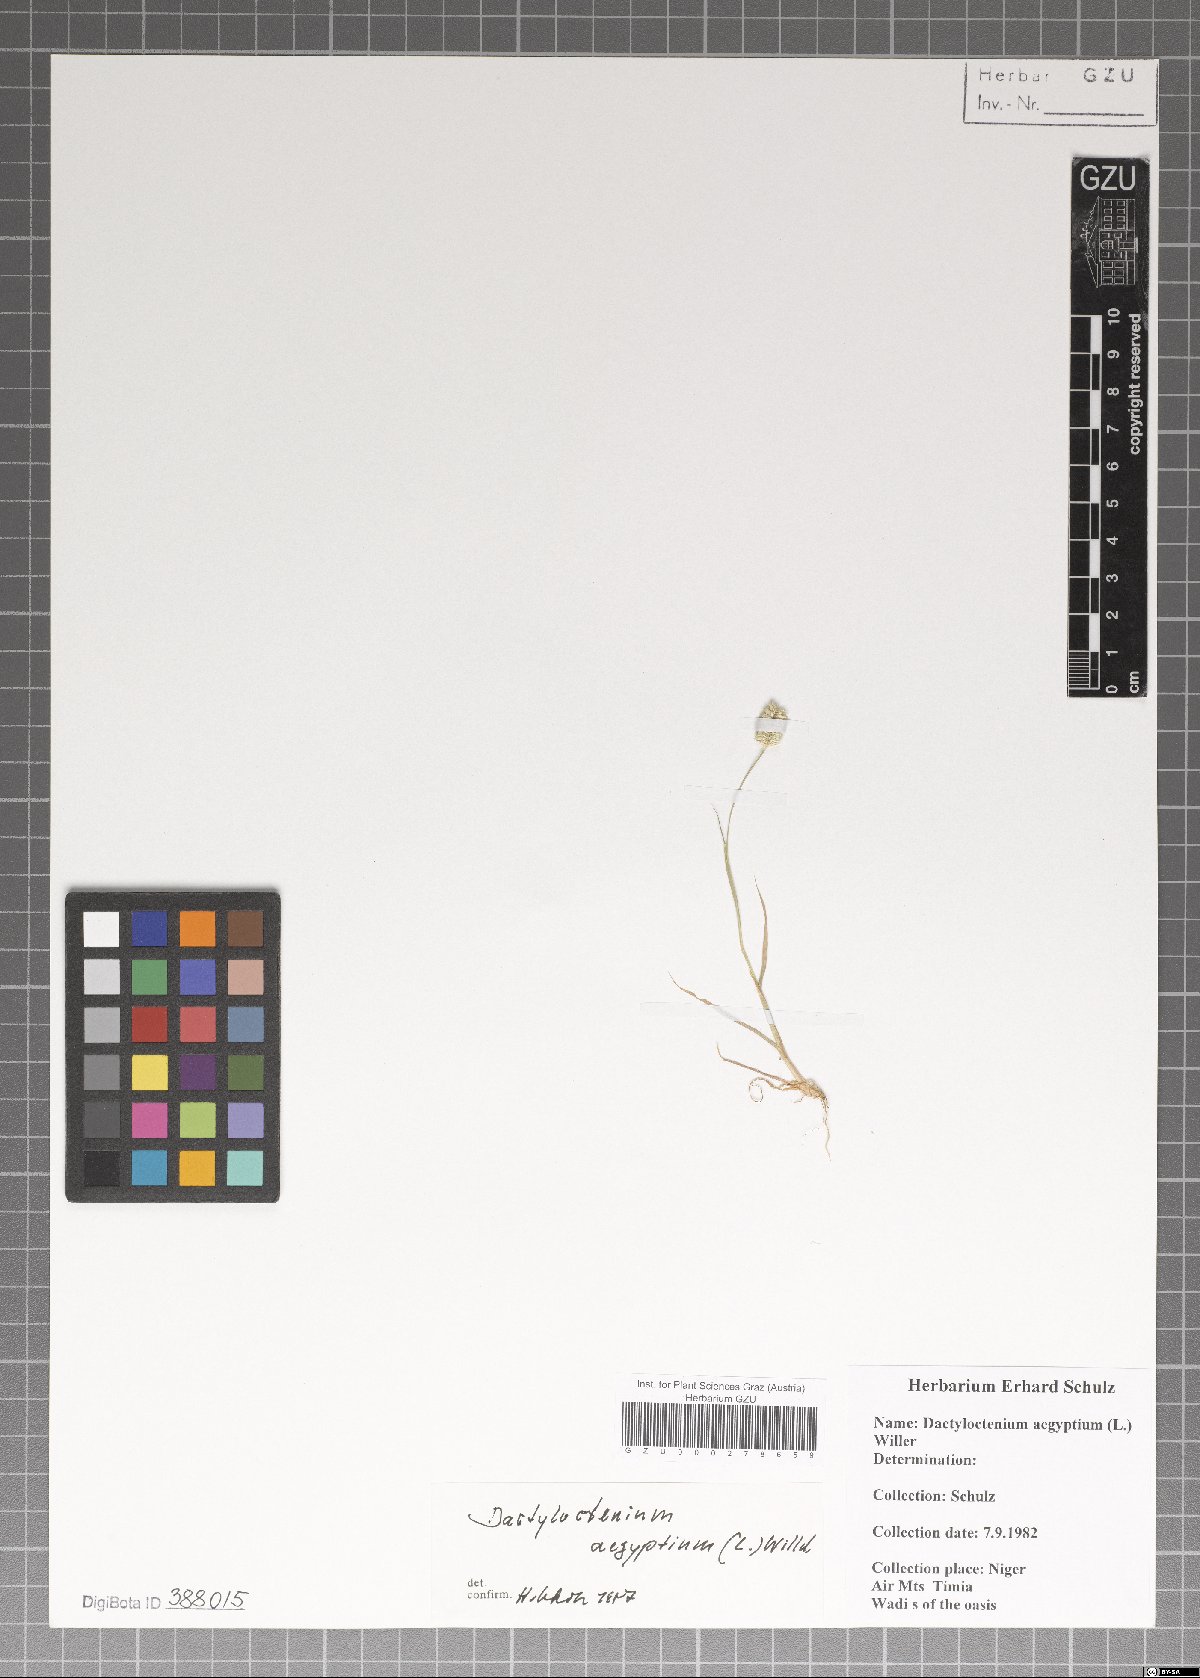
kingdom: Plantae
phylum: Tracheophyta
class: Liliopsida
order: Poales
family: Poaceae
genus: Dactyloctenium
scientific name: Dactyloctenium aegyptium
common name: Egyptian grass
